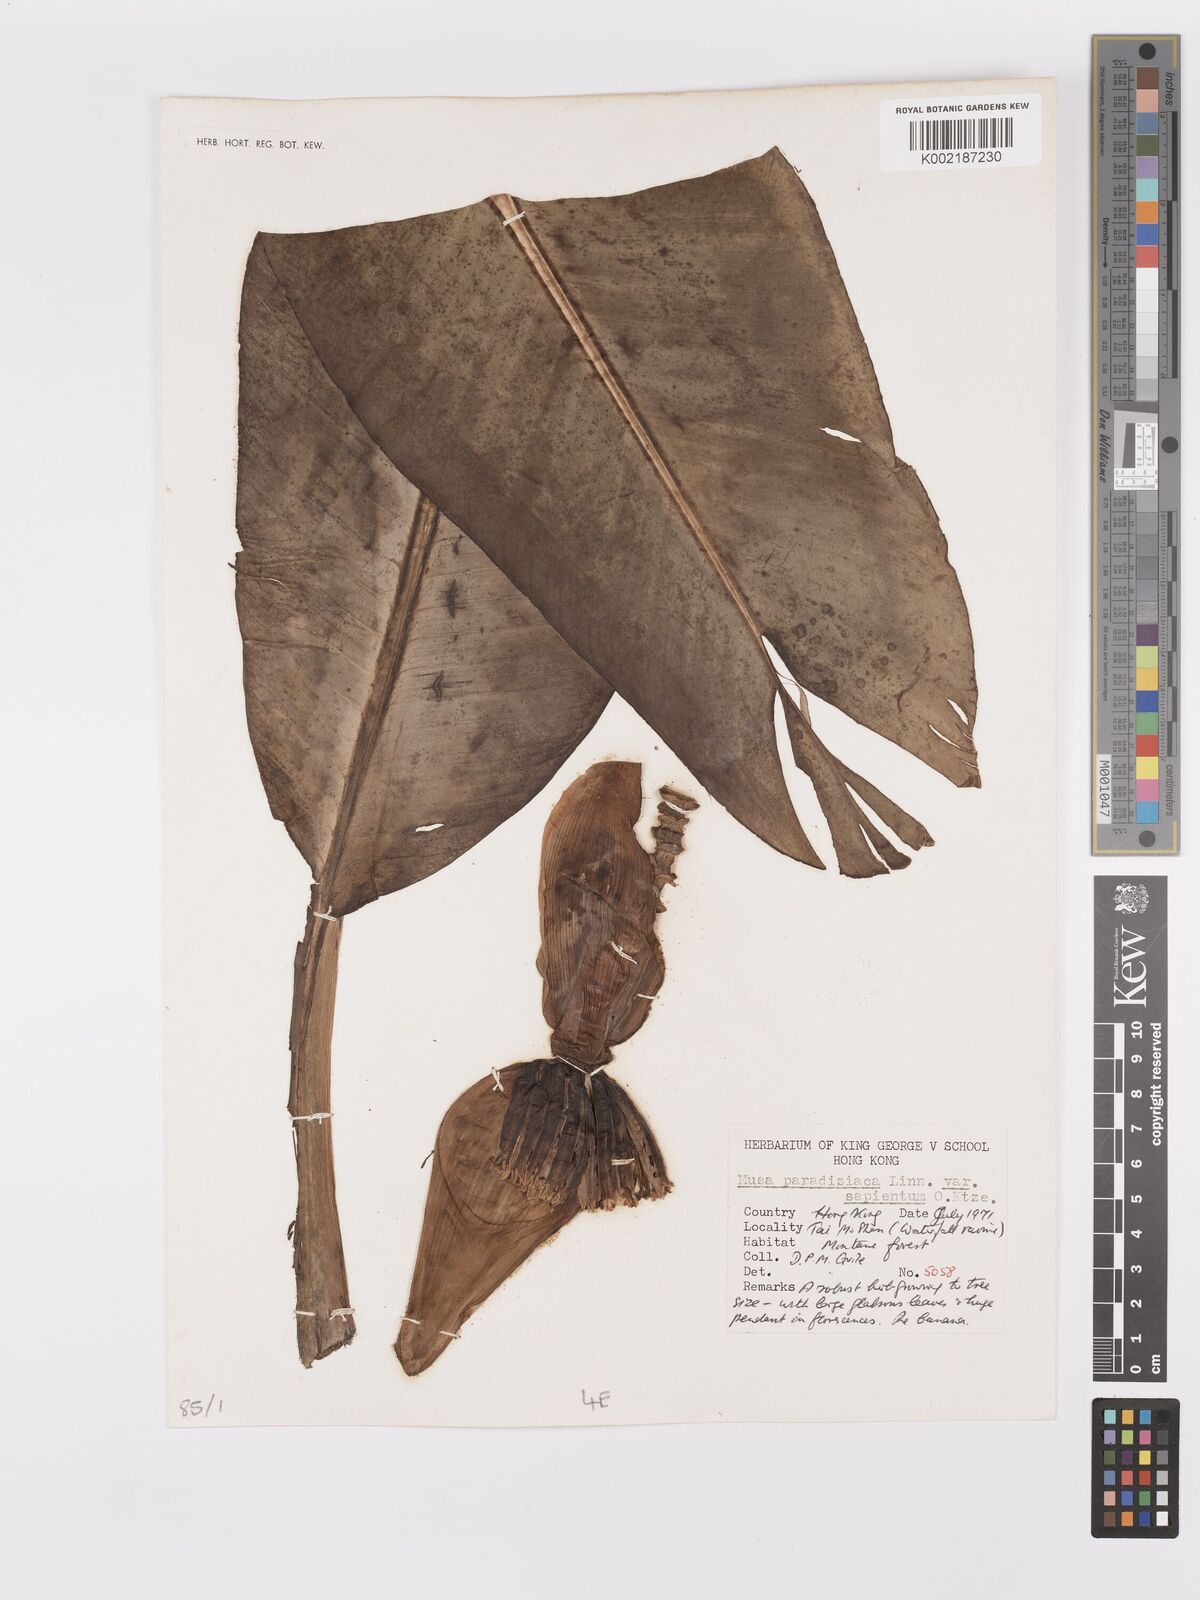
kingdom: Plantae
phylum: Tracheophyta
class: Liliopsida
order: Zingiberales
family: Musaceae
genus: Musa
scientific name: Musa paradisiaca
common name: French plantain
